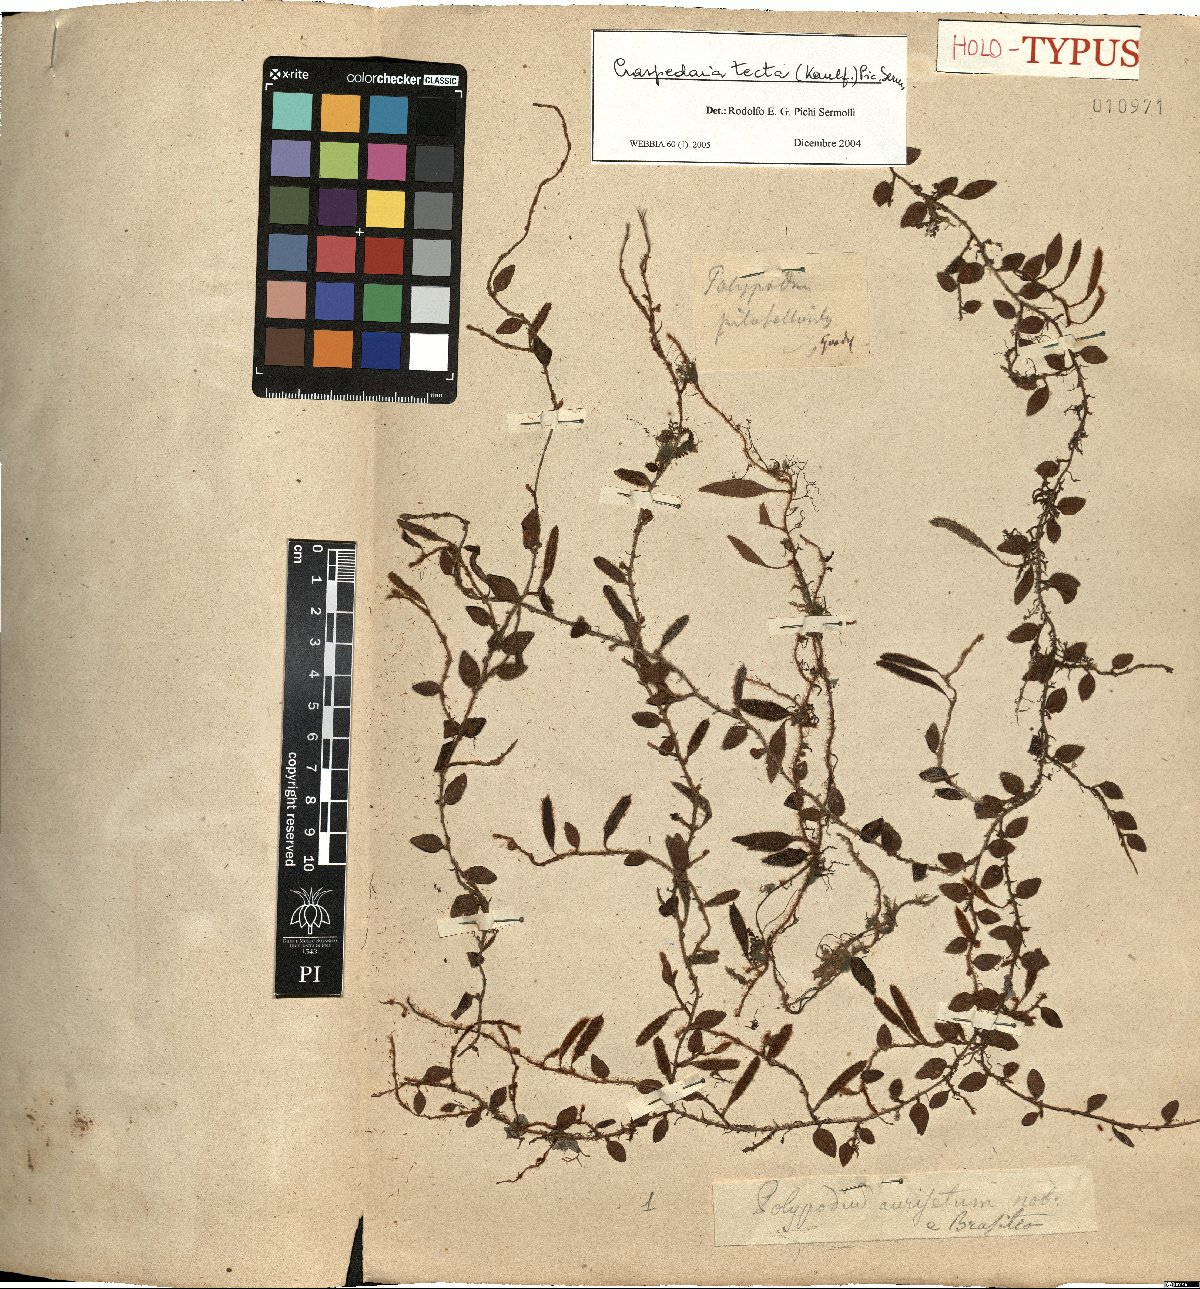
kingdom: Plantae
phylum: Tracheophyta
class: Polypodiopsida
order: Polypodiales
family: Polypodiaceae
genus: Microgramma
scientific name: Microgramma tecta
